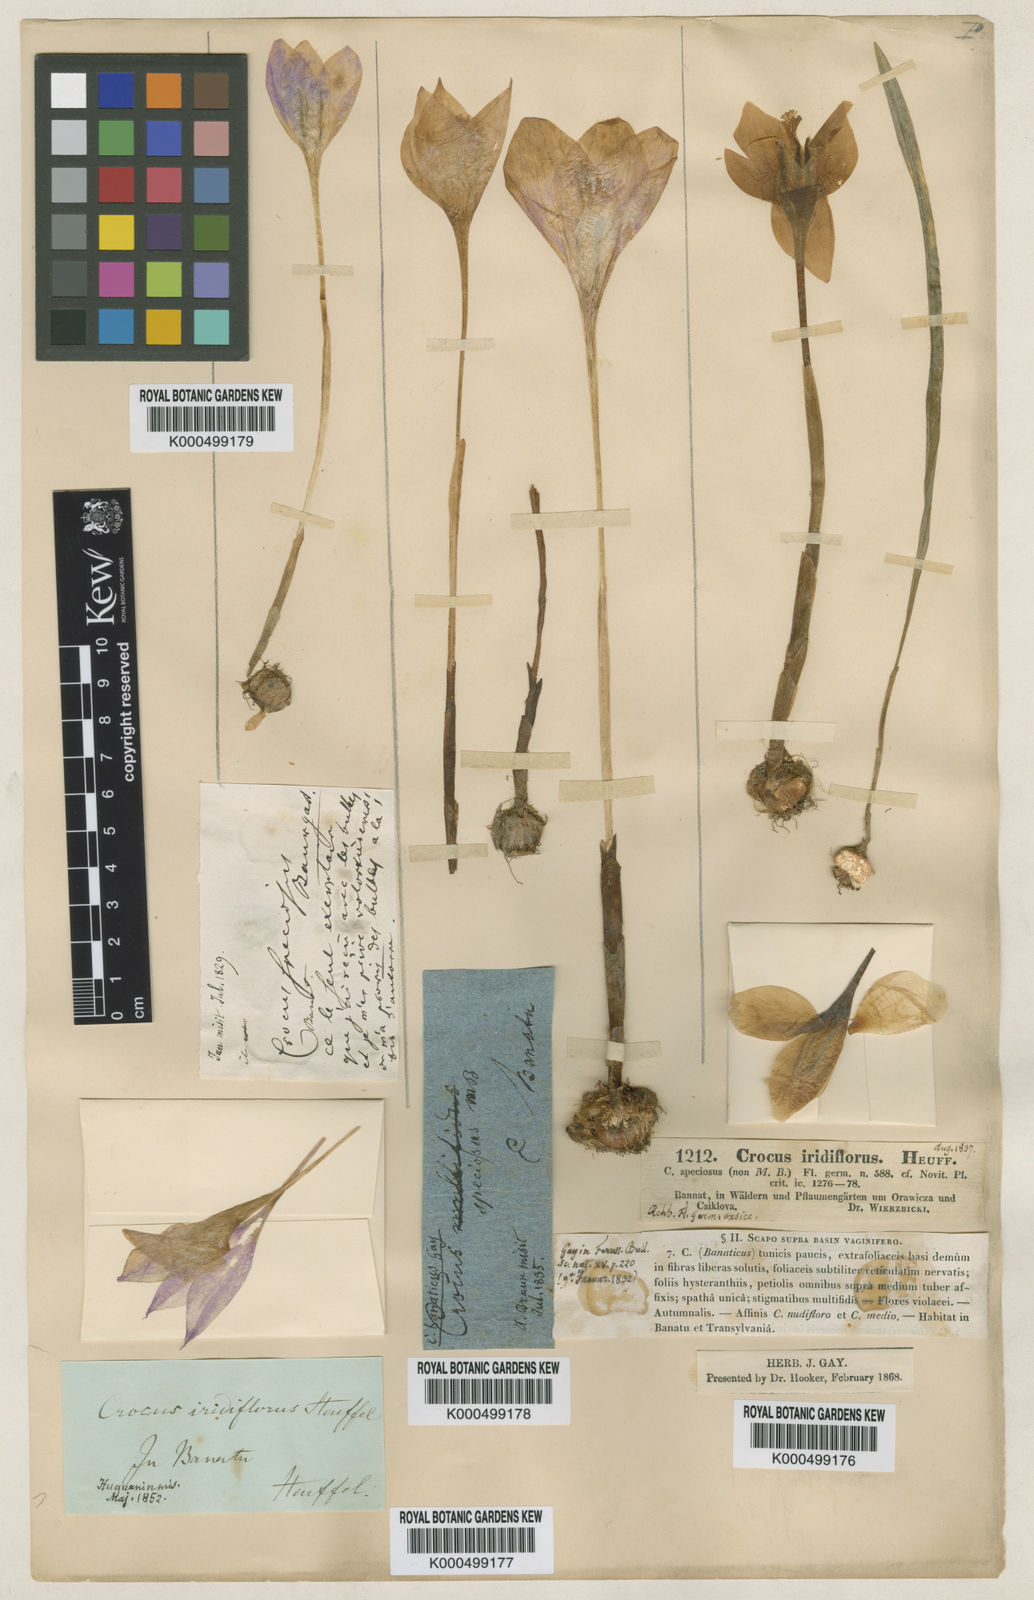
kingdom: Plantae
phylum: Tracheophyta
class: Liliopsida
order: Asparagales
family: Iridaceae
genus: Crocus
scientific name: Crocus heuffelianus
